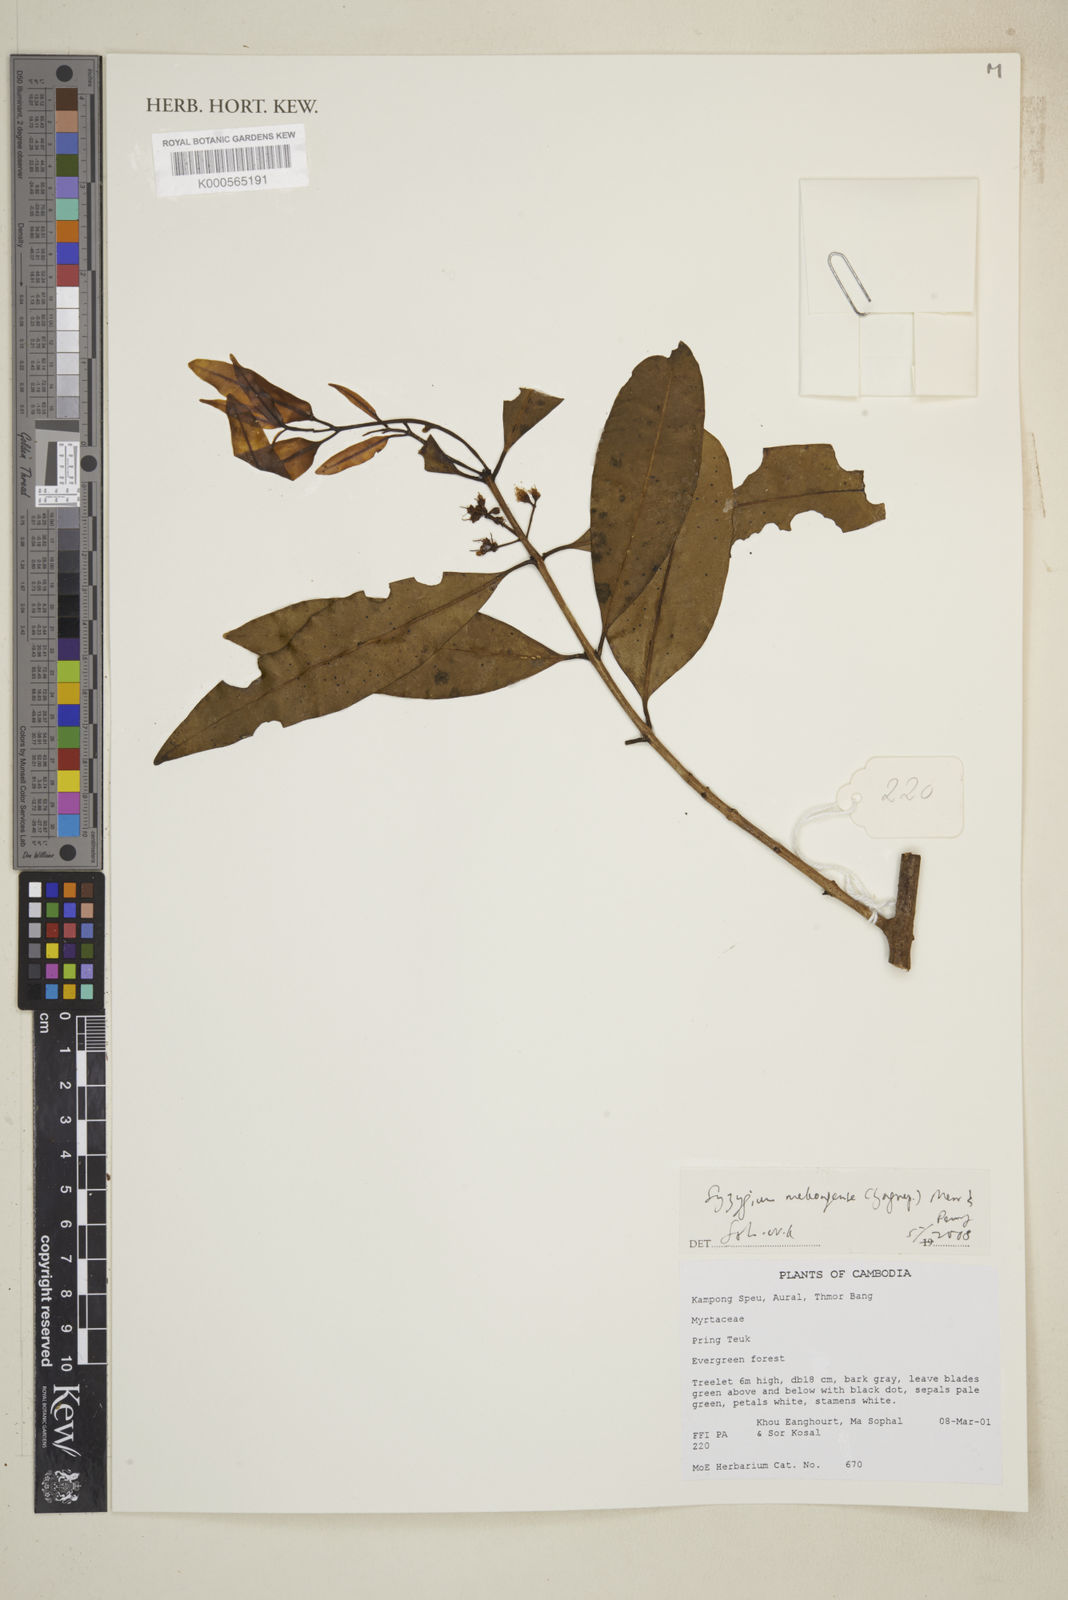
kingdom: Plantae
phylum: Tracheophyta
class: Magnoliopsida
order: Myrtales
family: Myrtaceae
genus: Syzygium
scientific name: Syzygium
